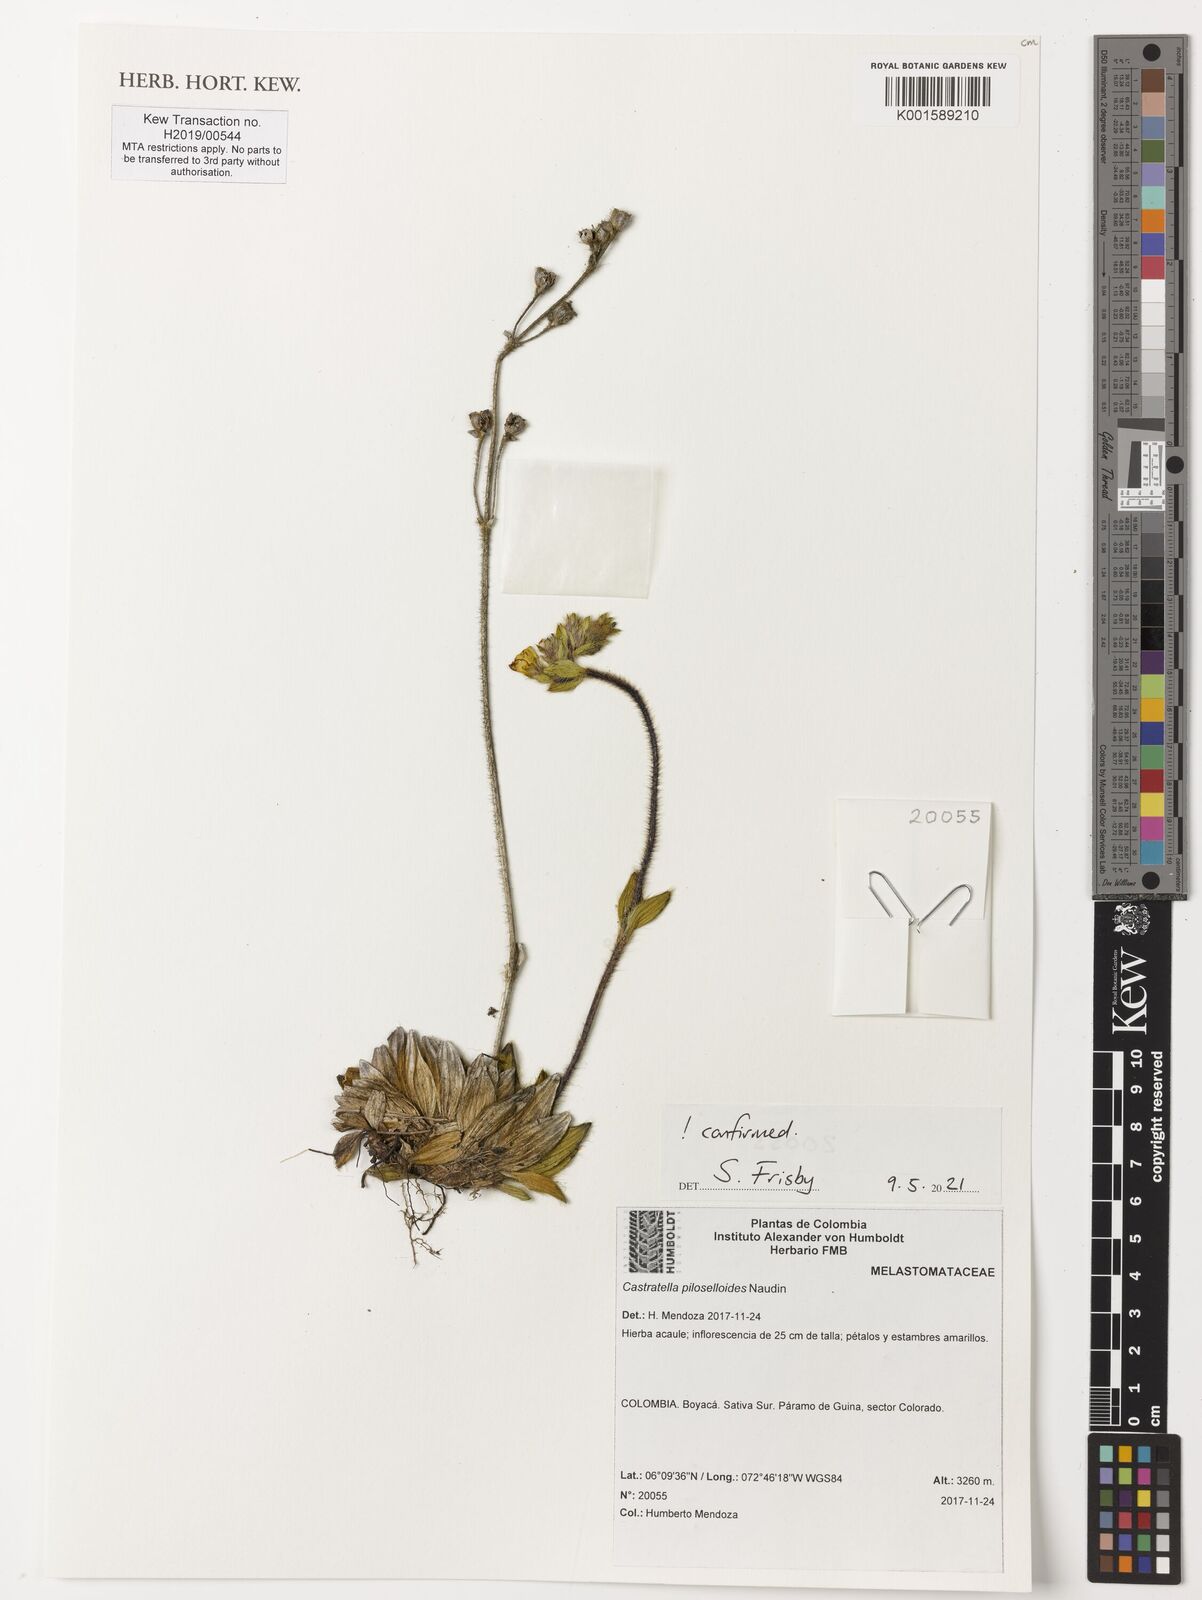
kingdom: Plantae
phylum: Tracheophyta
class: Magnoliopsida
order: Myrtales
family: Melastomataceae
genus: Castratella
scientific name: Castratella piloselloides
